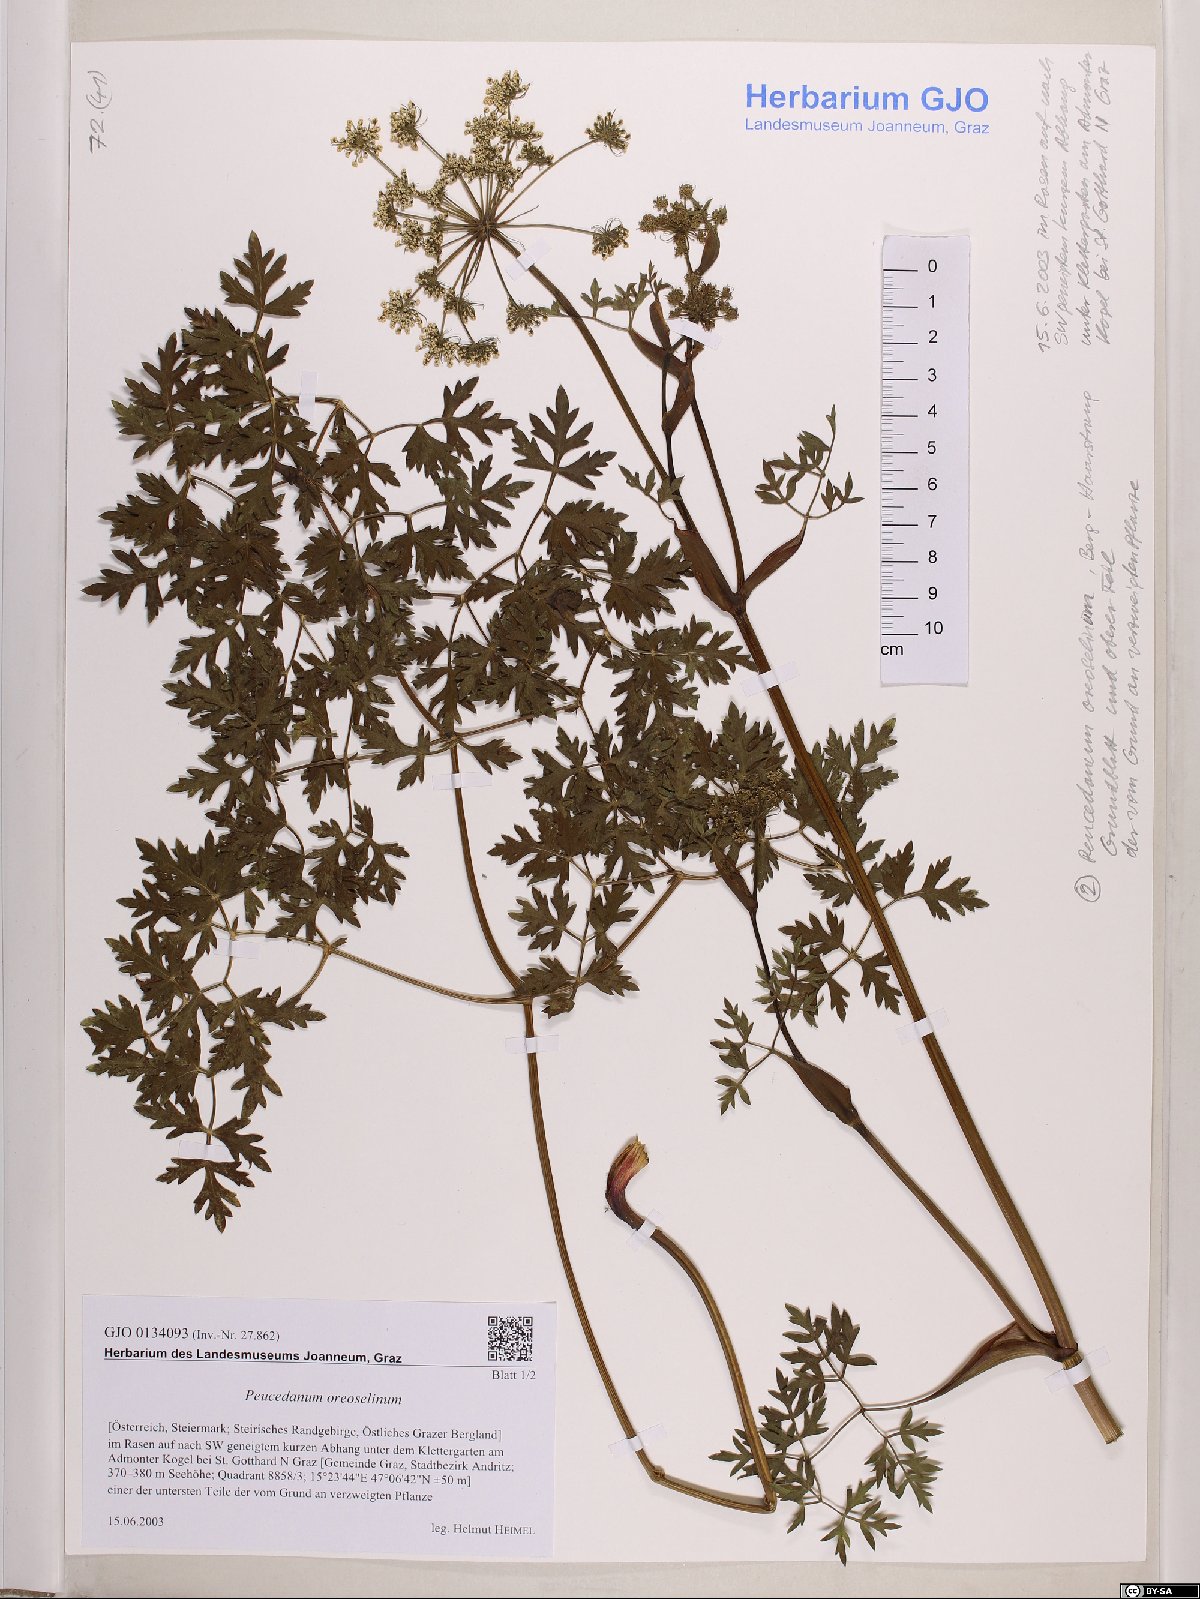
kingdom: Plantae
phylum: Tracheophyta
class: Magnoliopsida
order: Apiales
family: Apiaceae
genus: Oreoselinum
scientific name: Oreoselinum nigrum
